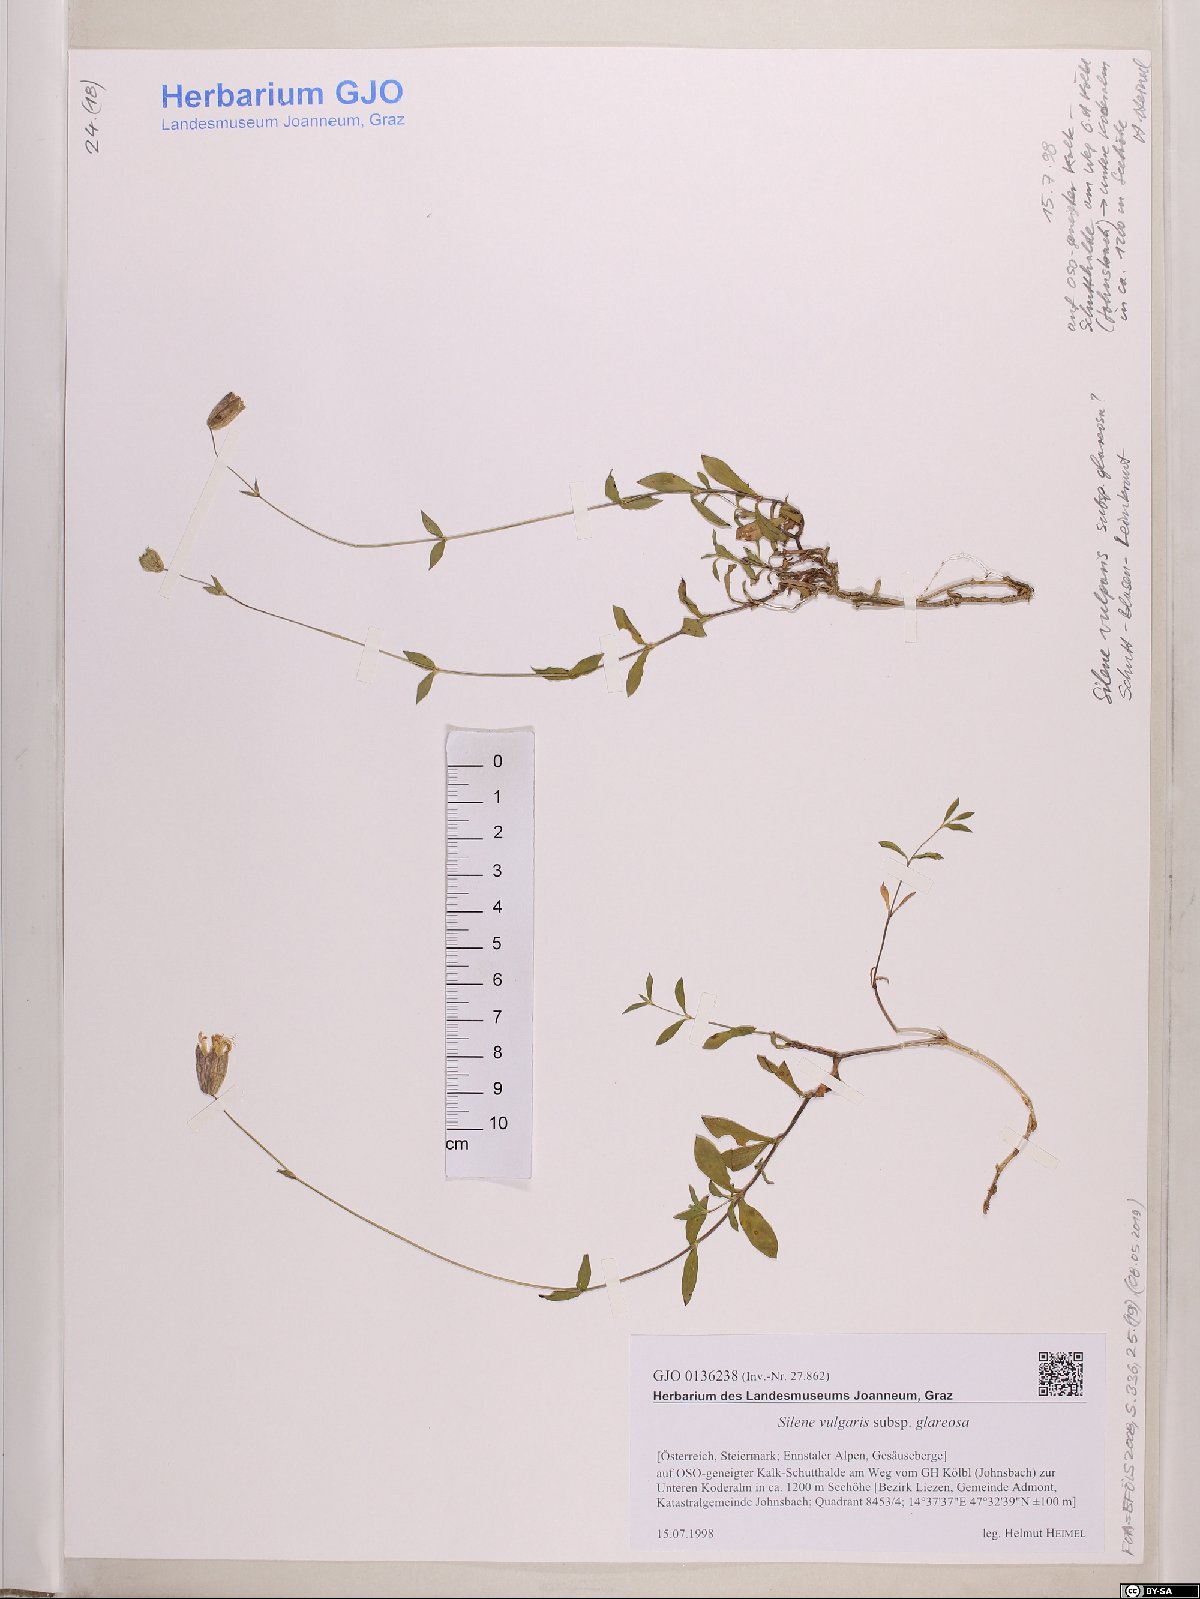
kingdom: Plantae
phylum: Tracheophyta
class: Magnoliopsida
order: Caryophyllales
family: Caryophyllaceae
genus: Silene
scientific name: Silene glareosa
